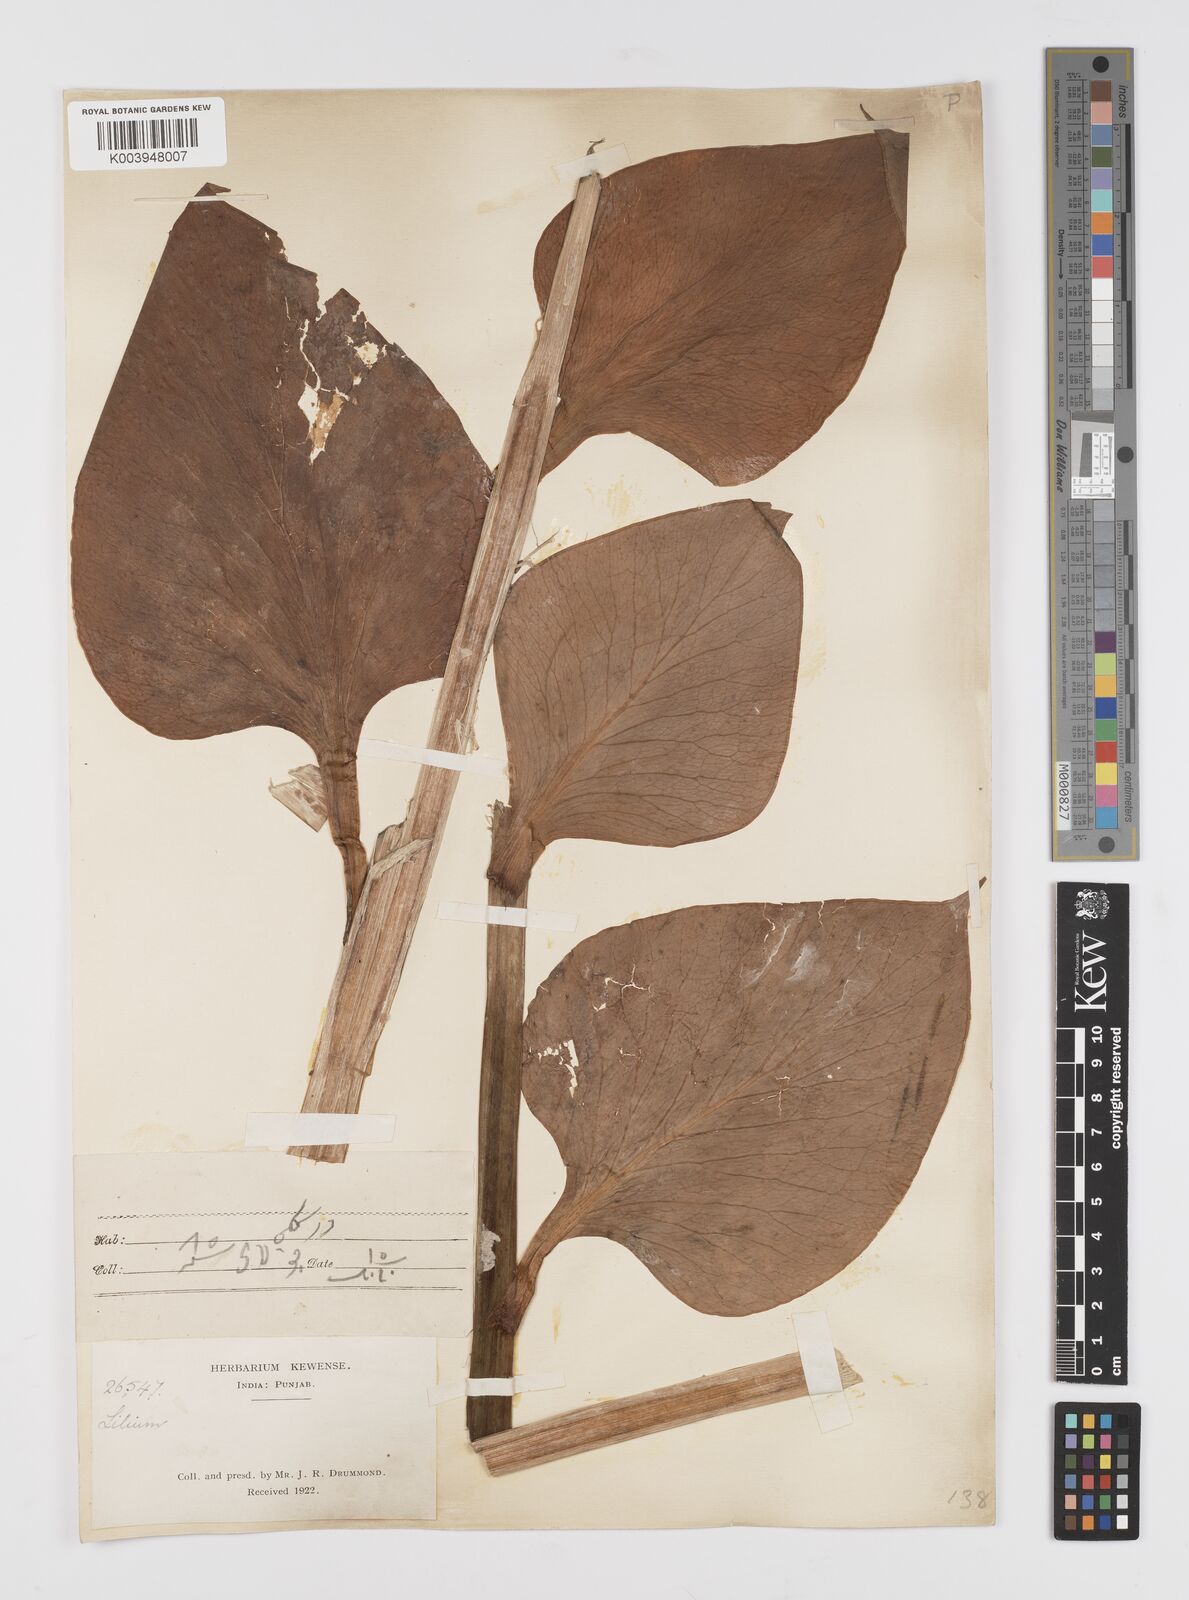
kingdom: Plantae
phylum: Tracheophyta
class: Liliopsida
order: Liliales
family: Liliaceae
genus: Cardiocrinum
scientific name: Cardiocrinum giganteum
